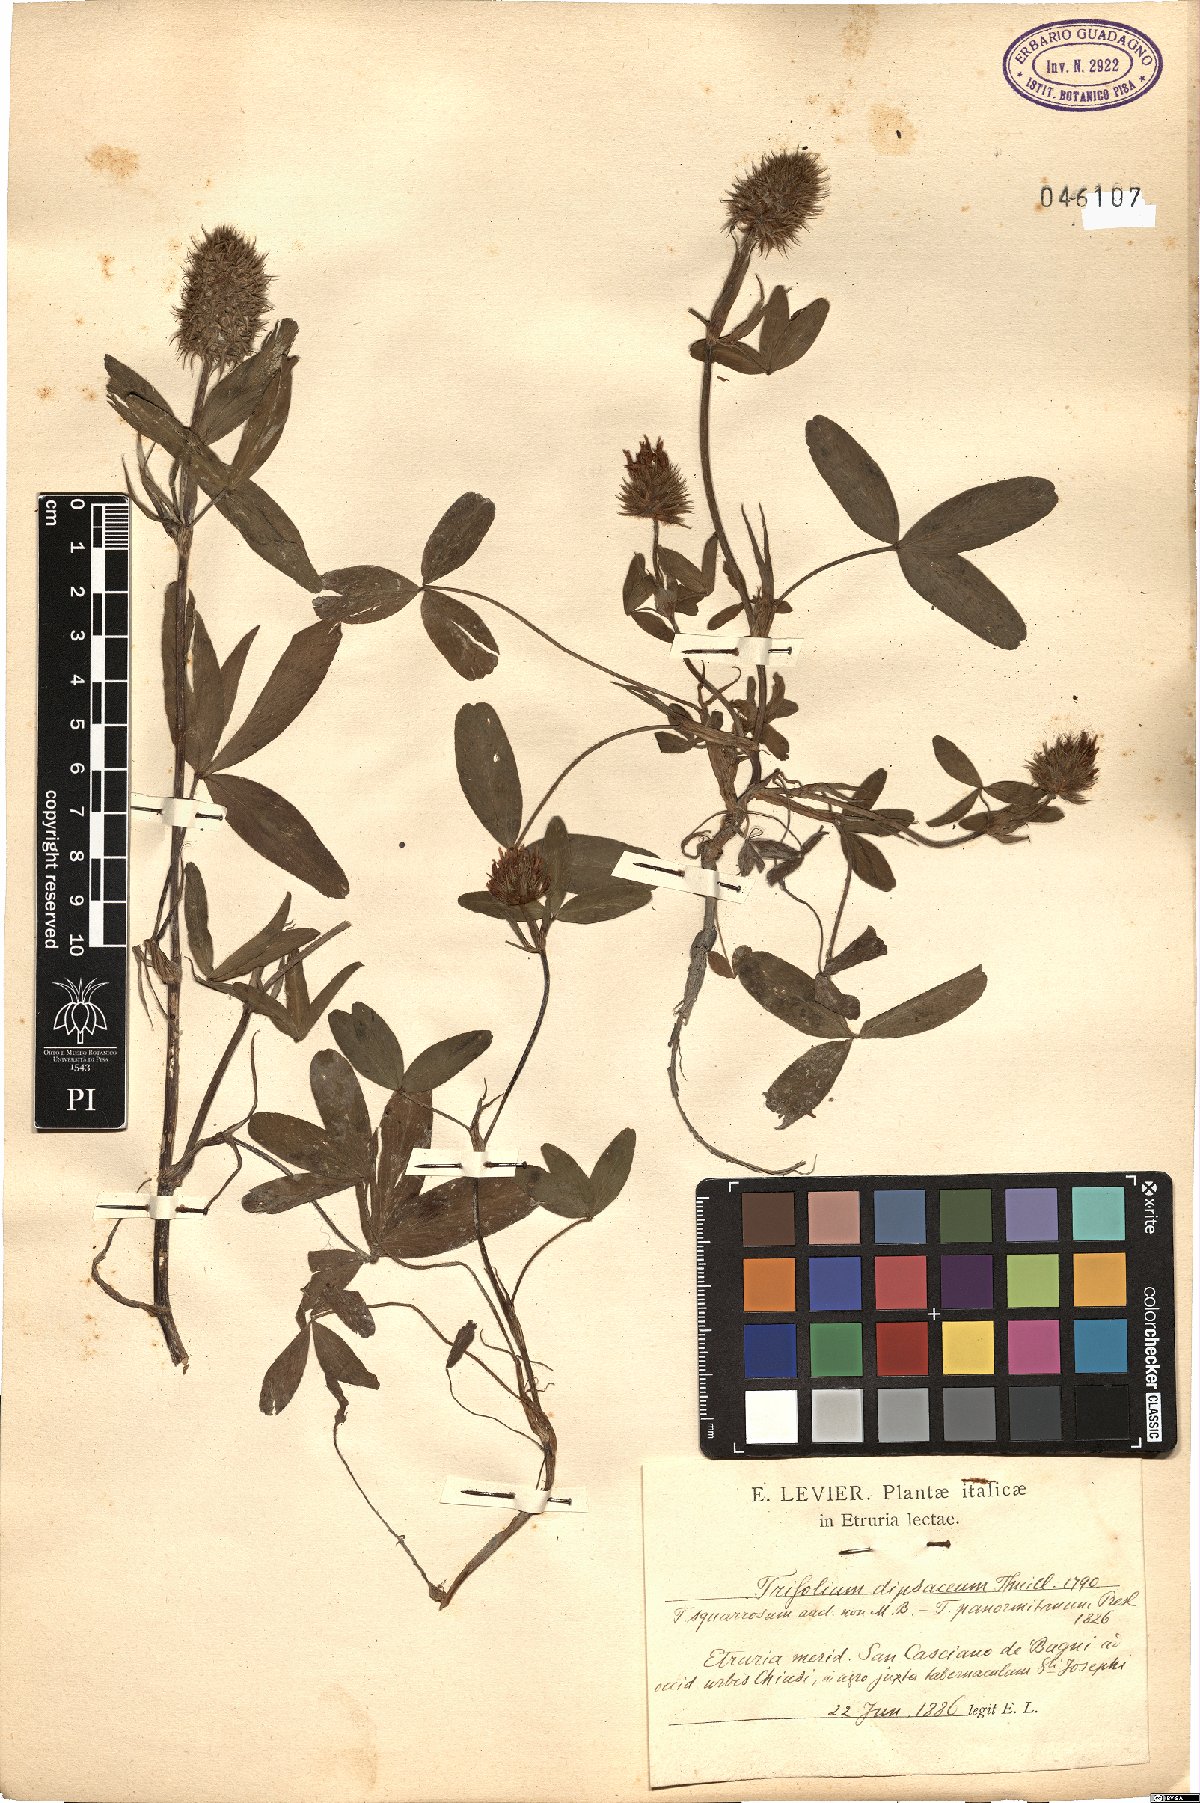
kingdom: Plantae
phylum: Tracheophyta
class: Magnoliopsida
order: Fabales
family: Fabaceae
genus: Trifolium
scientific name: Trifolium ochroleucon
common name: Sulphur clover
